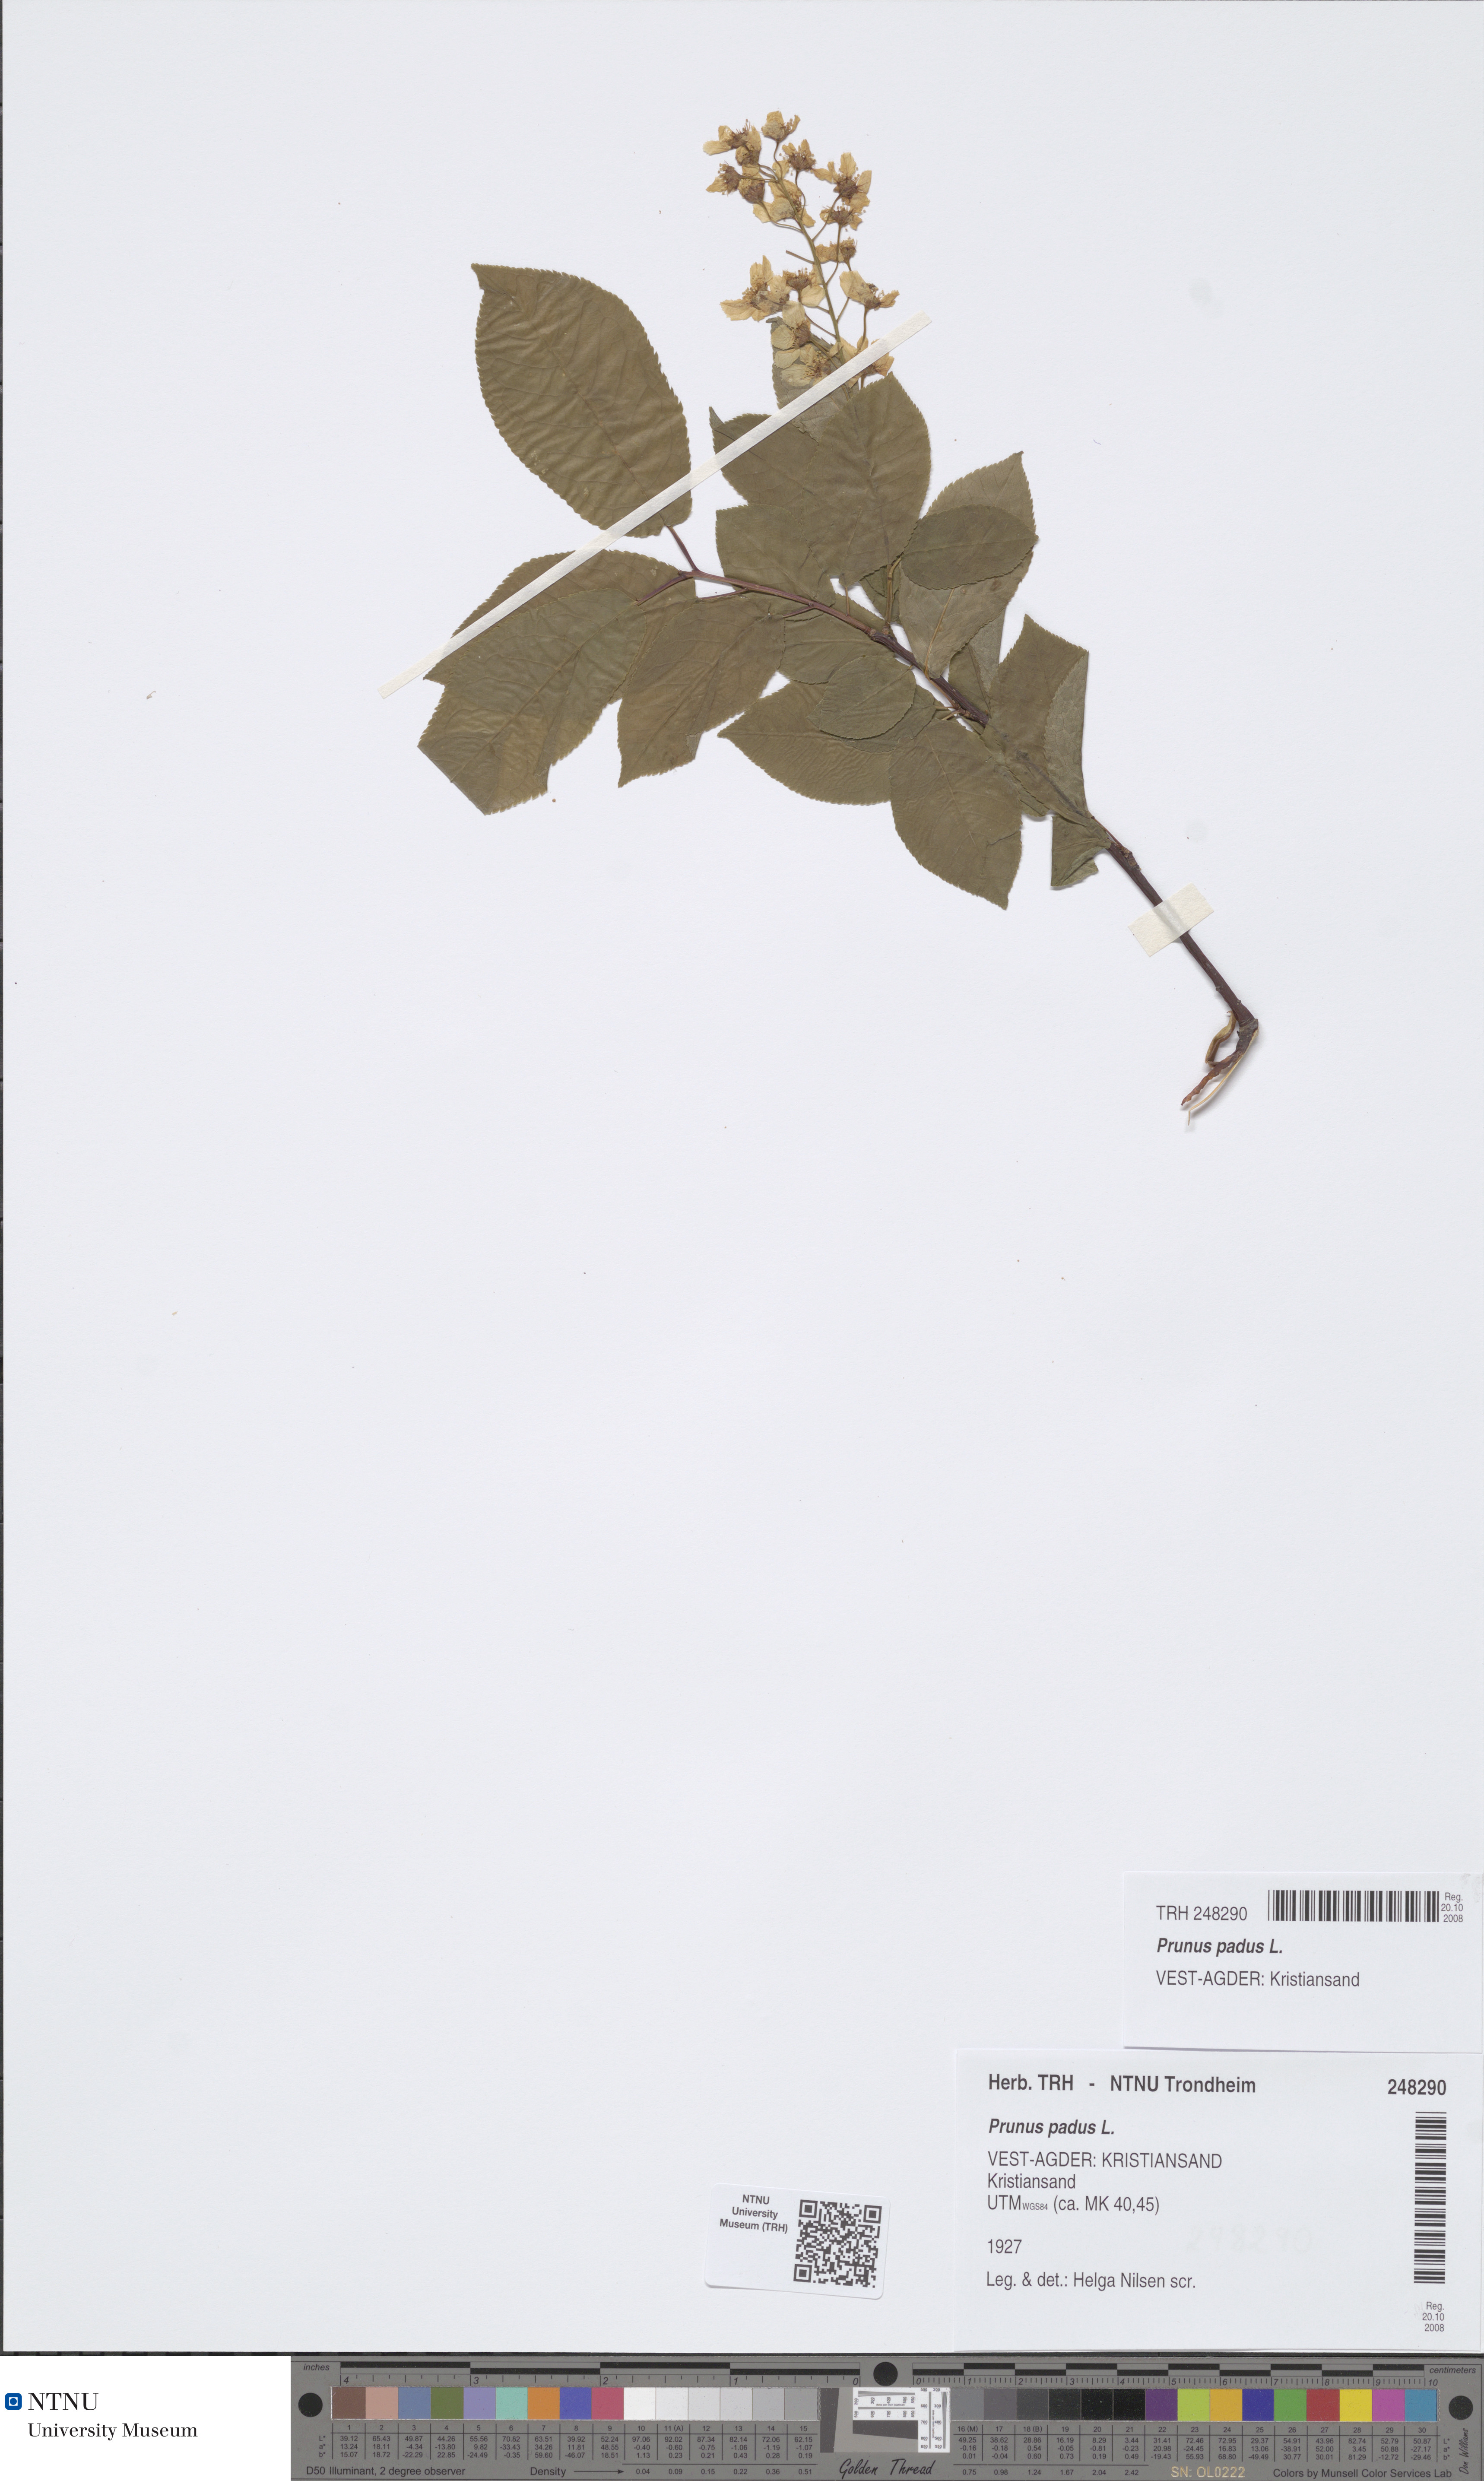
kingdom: Plantae
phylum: Tracheophyta
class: Magnoliopsida
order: Rosales
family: Rosaceae
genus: Prunus
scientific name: Prunus padus
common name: Bird cherry
